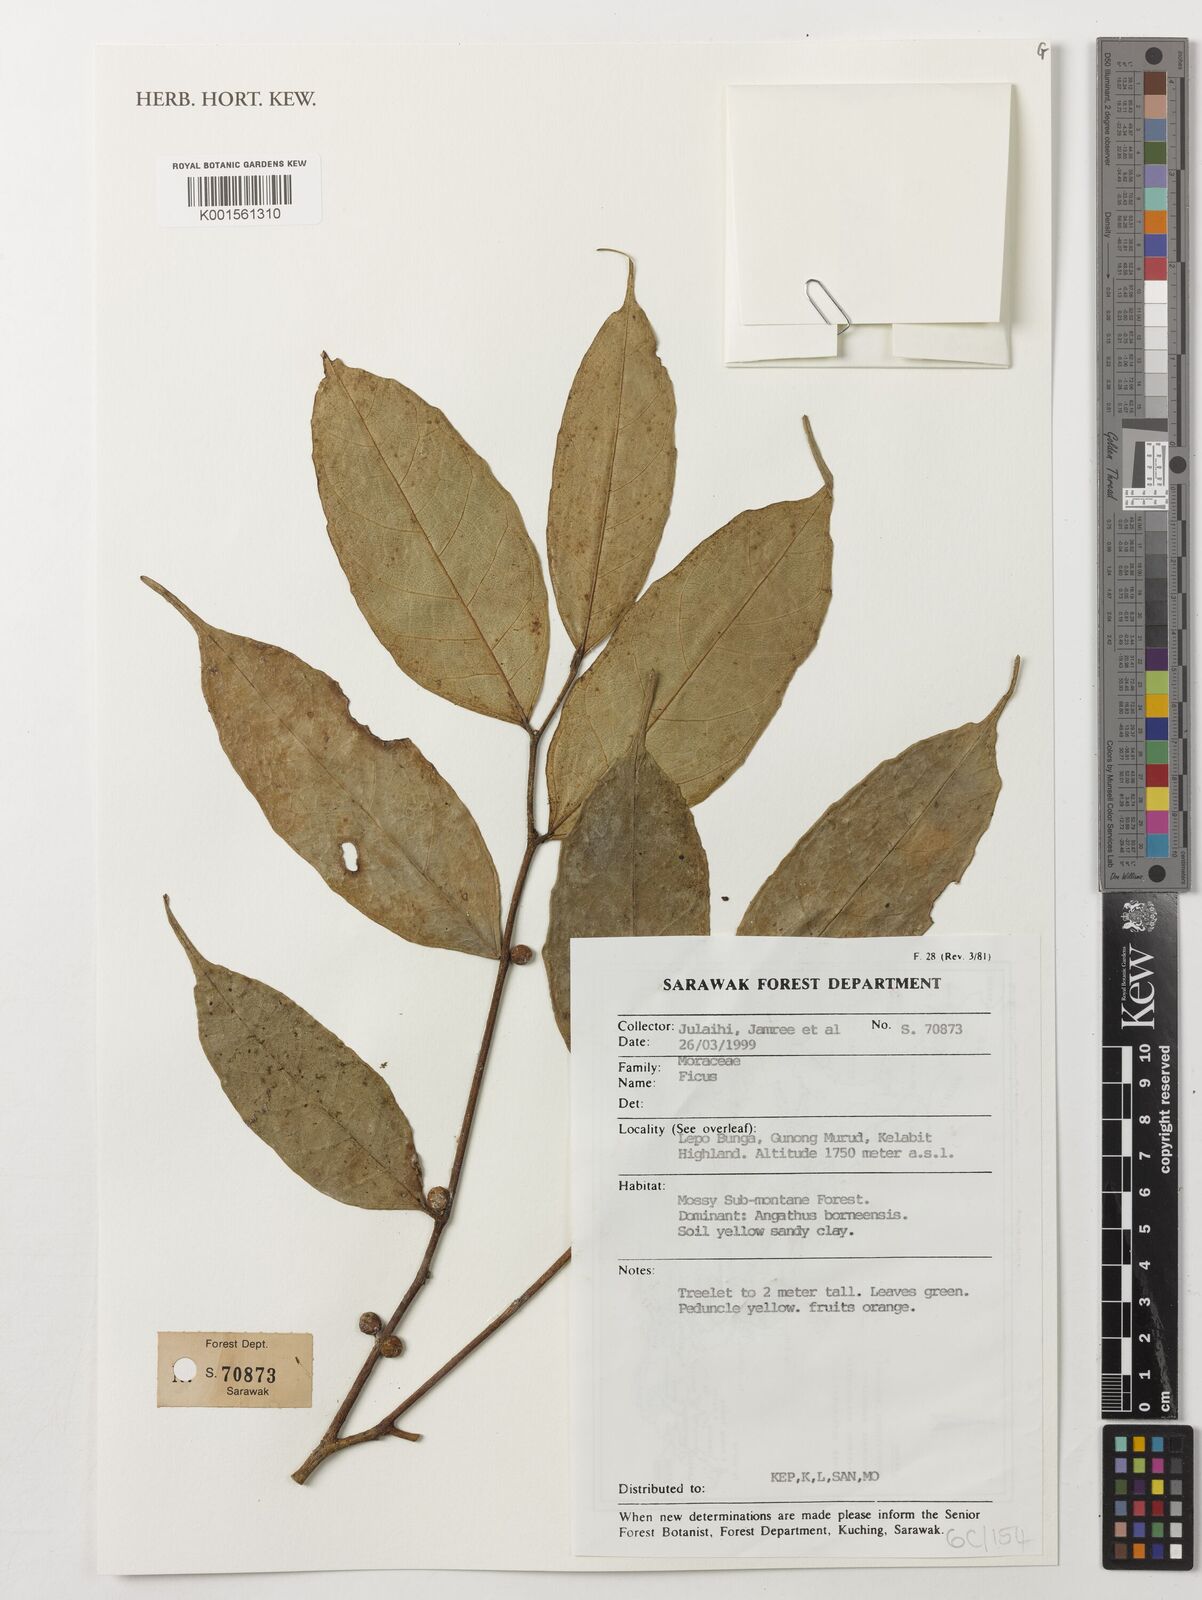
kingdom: Plantae
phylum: Tracheophyta
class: Magnoliopsida
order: Rosales
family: Moraceae
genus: Ficus
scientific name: Ficus
